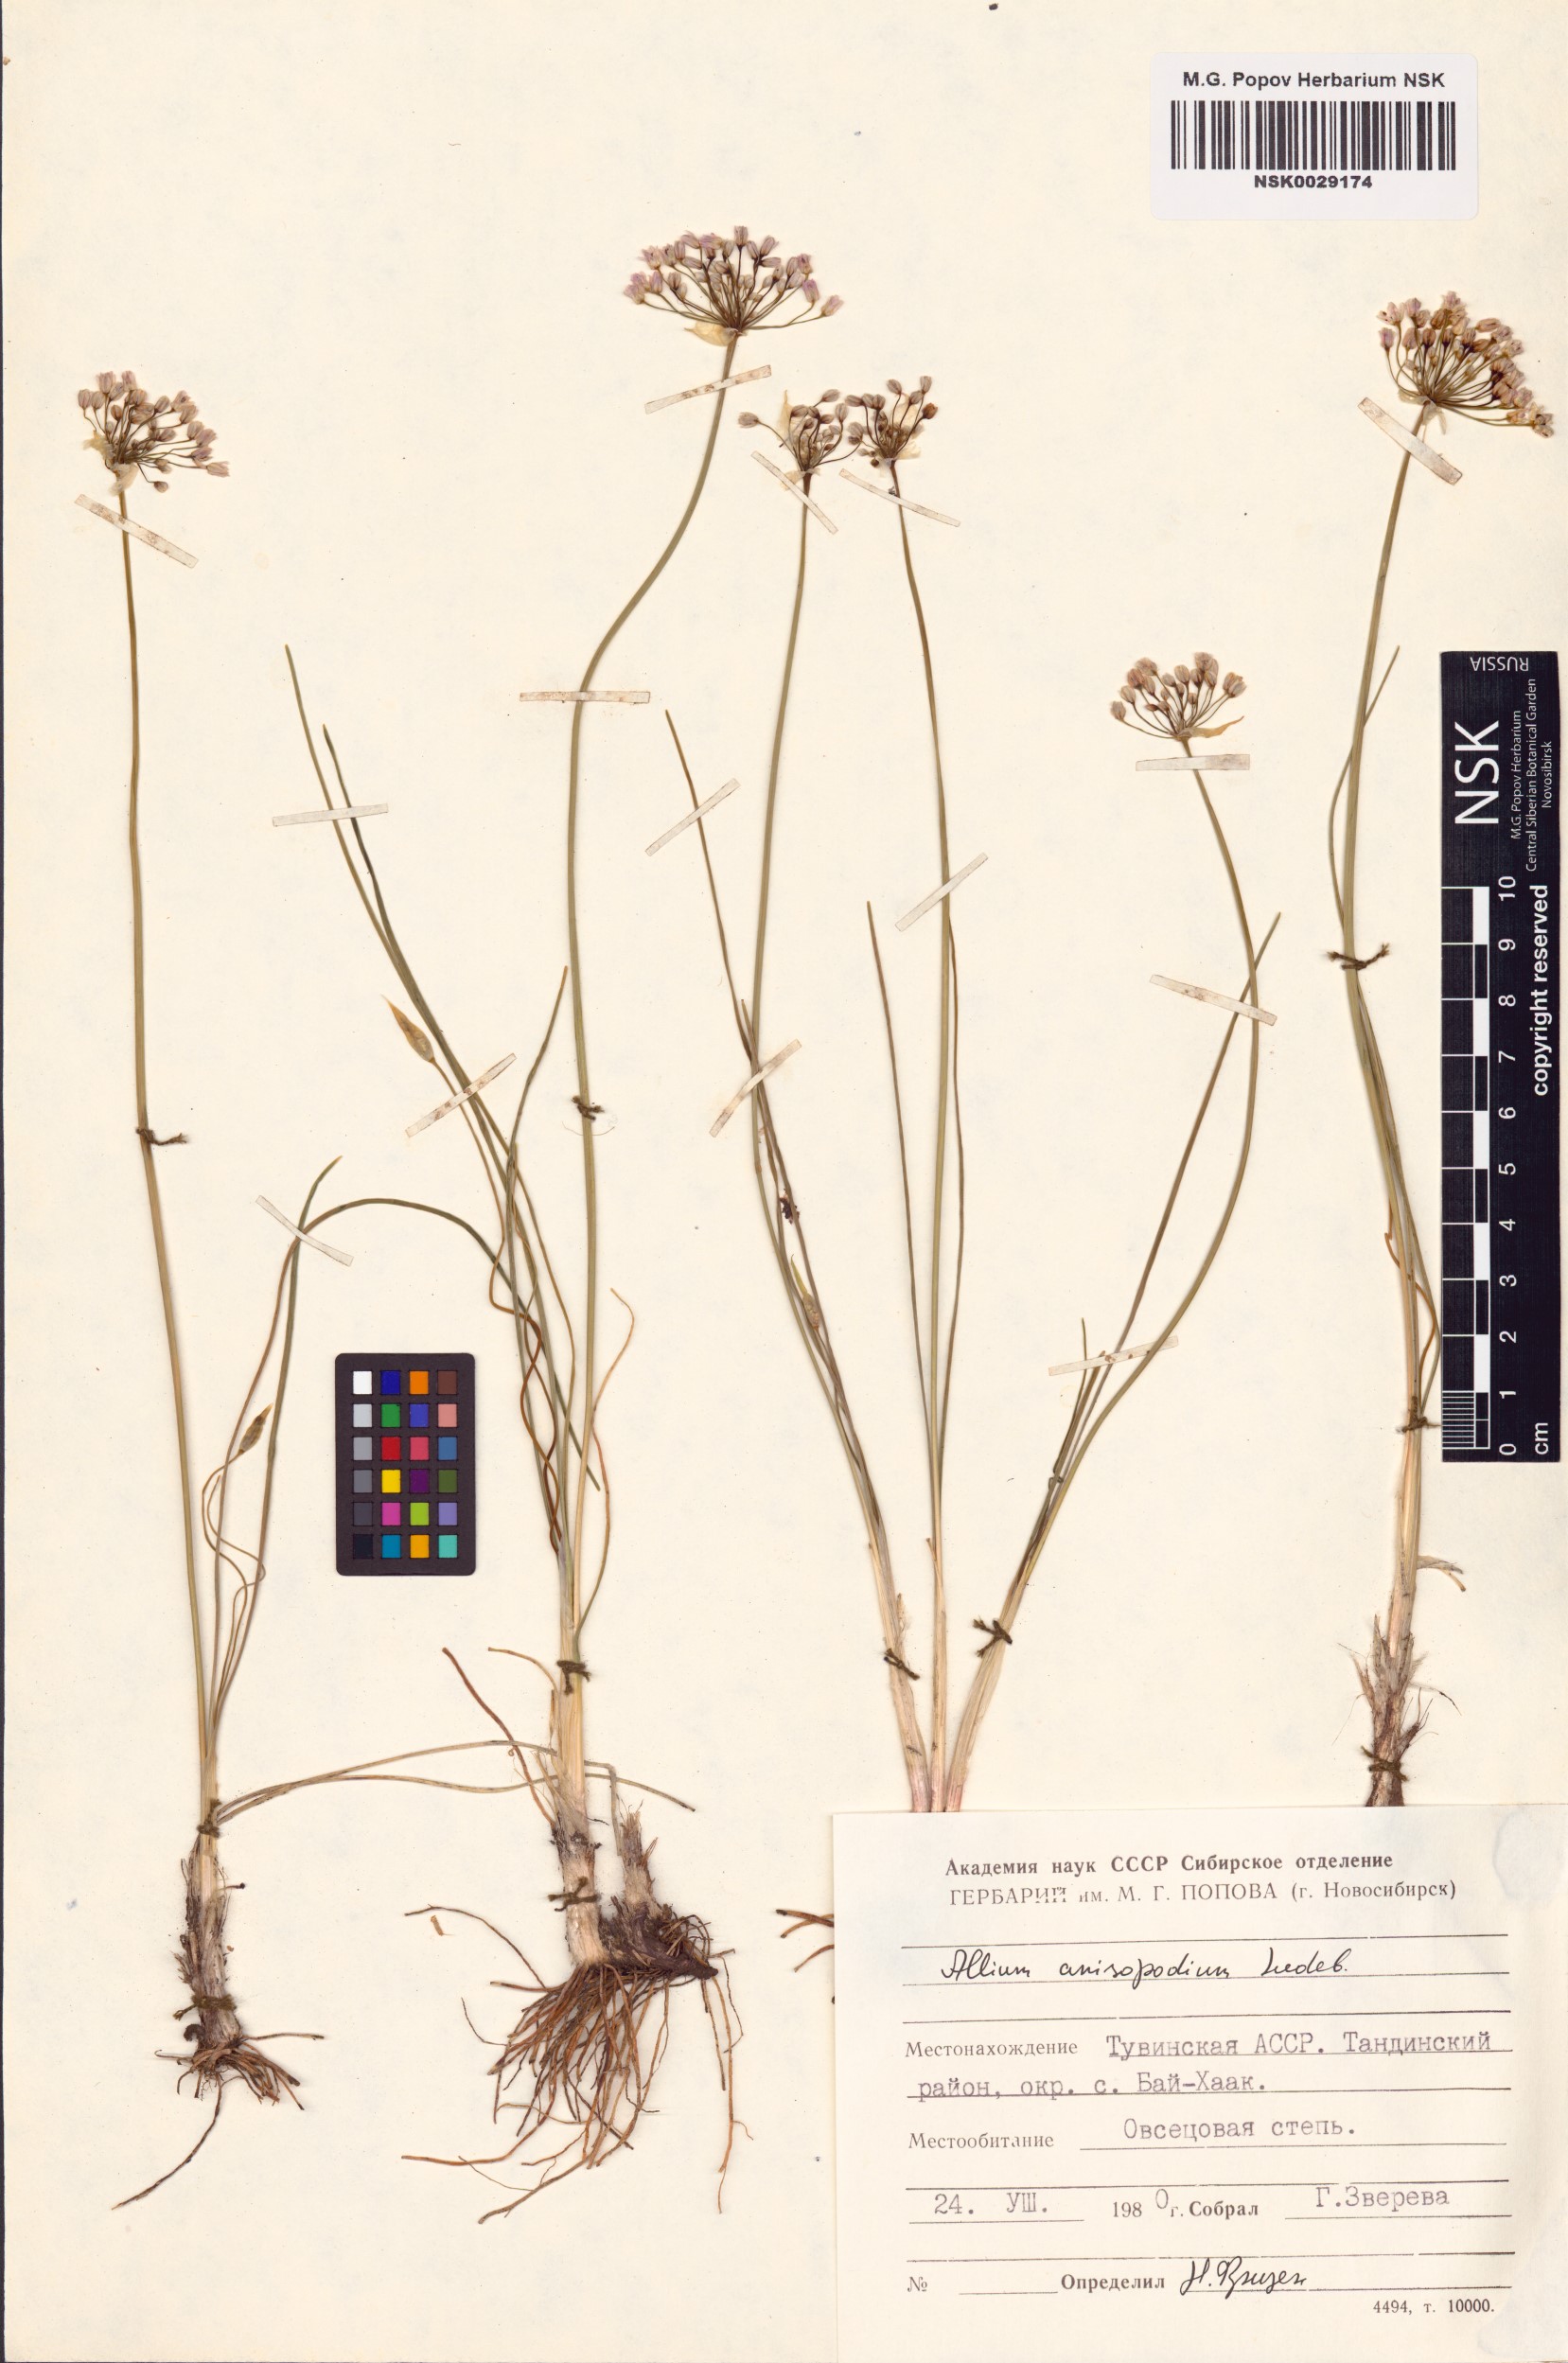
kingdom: Plantae
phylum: Tracheophyta
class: Liliopsida
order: Asparagales
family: Amaryllidaceae
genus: Allium
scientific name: Allium anisopodium
